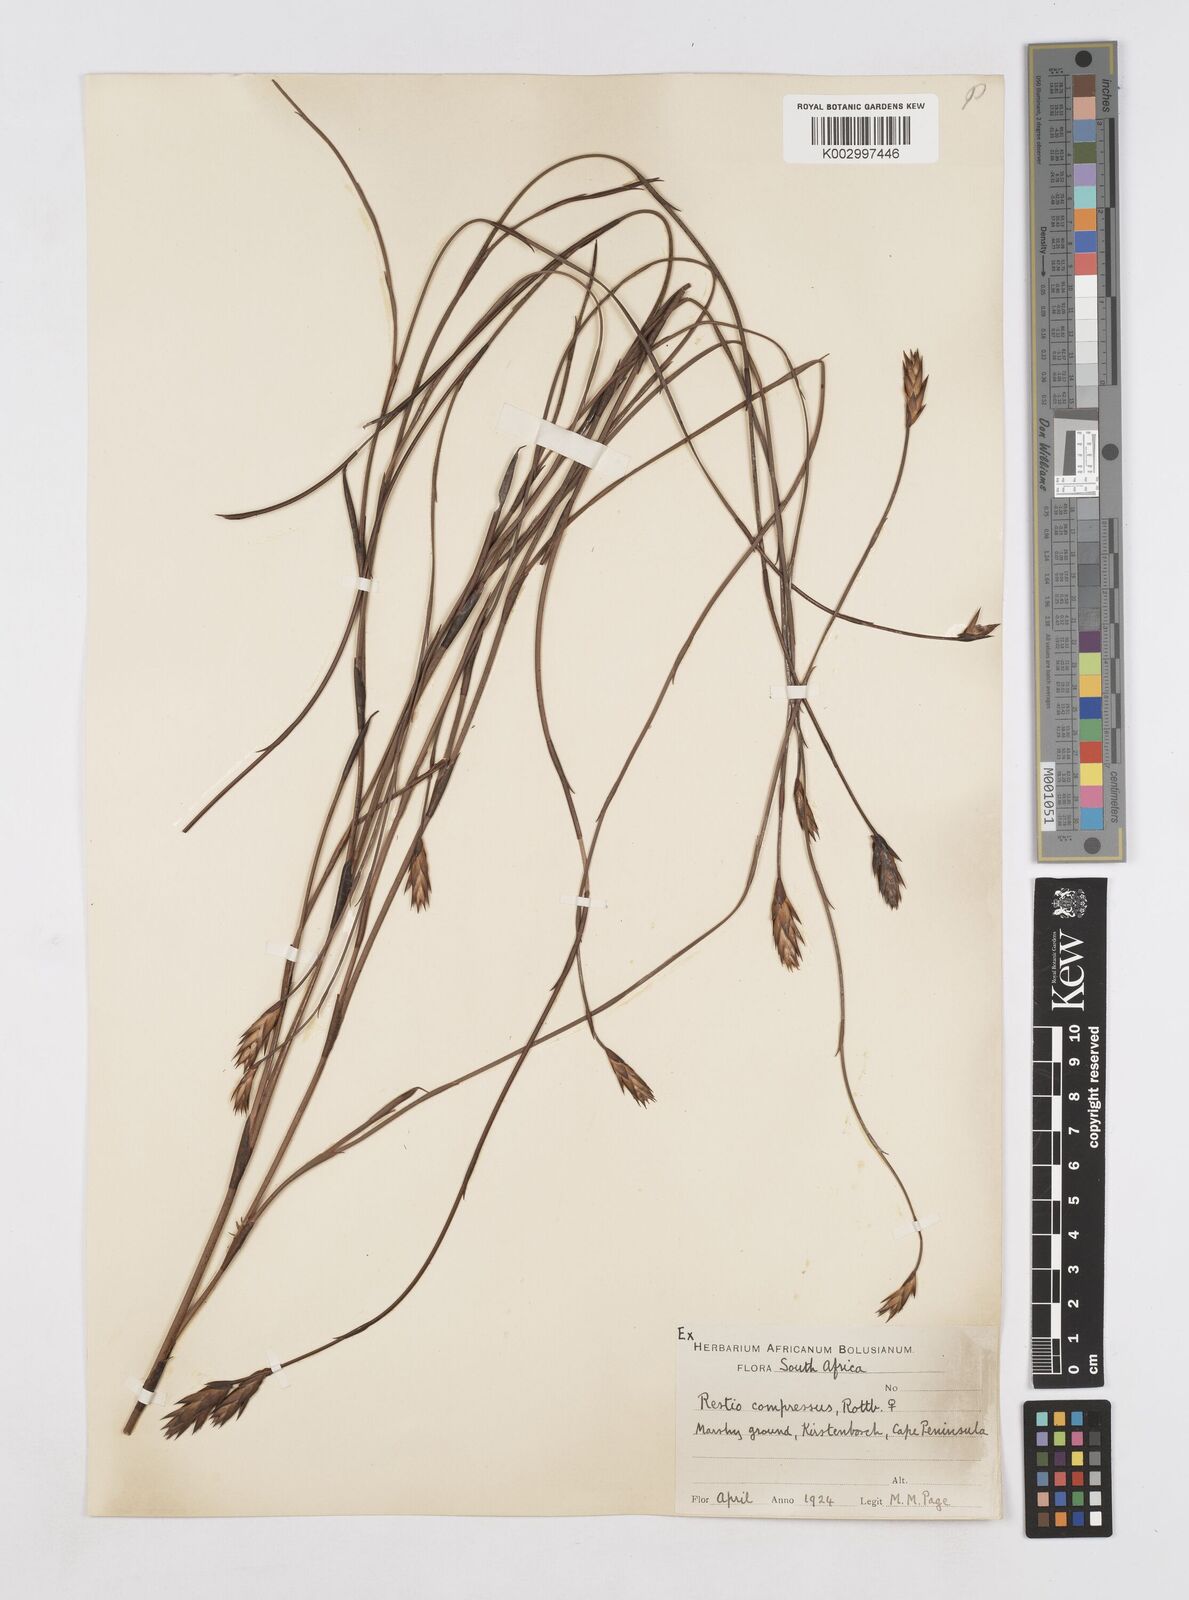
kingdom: Plantae
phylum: Tracheophyta
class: Liliopsida
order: Poales
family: Restionaceae
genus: Platycaulos
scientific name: Platycaulos major
